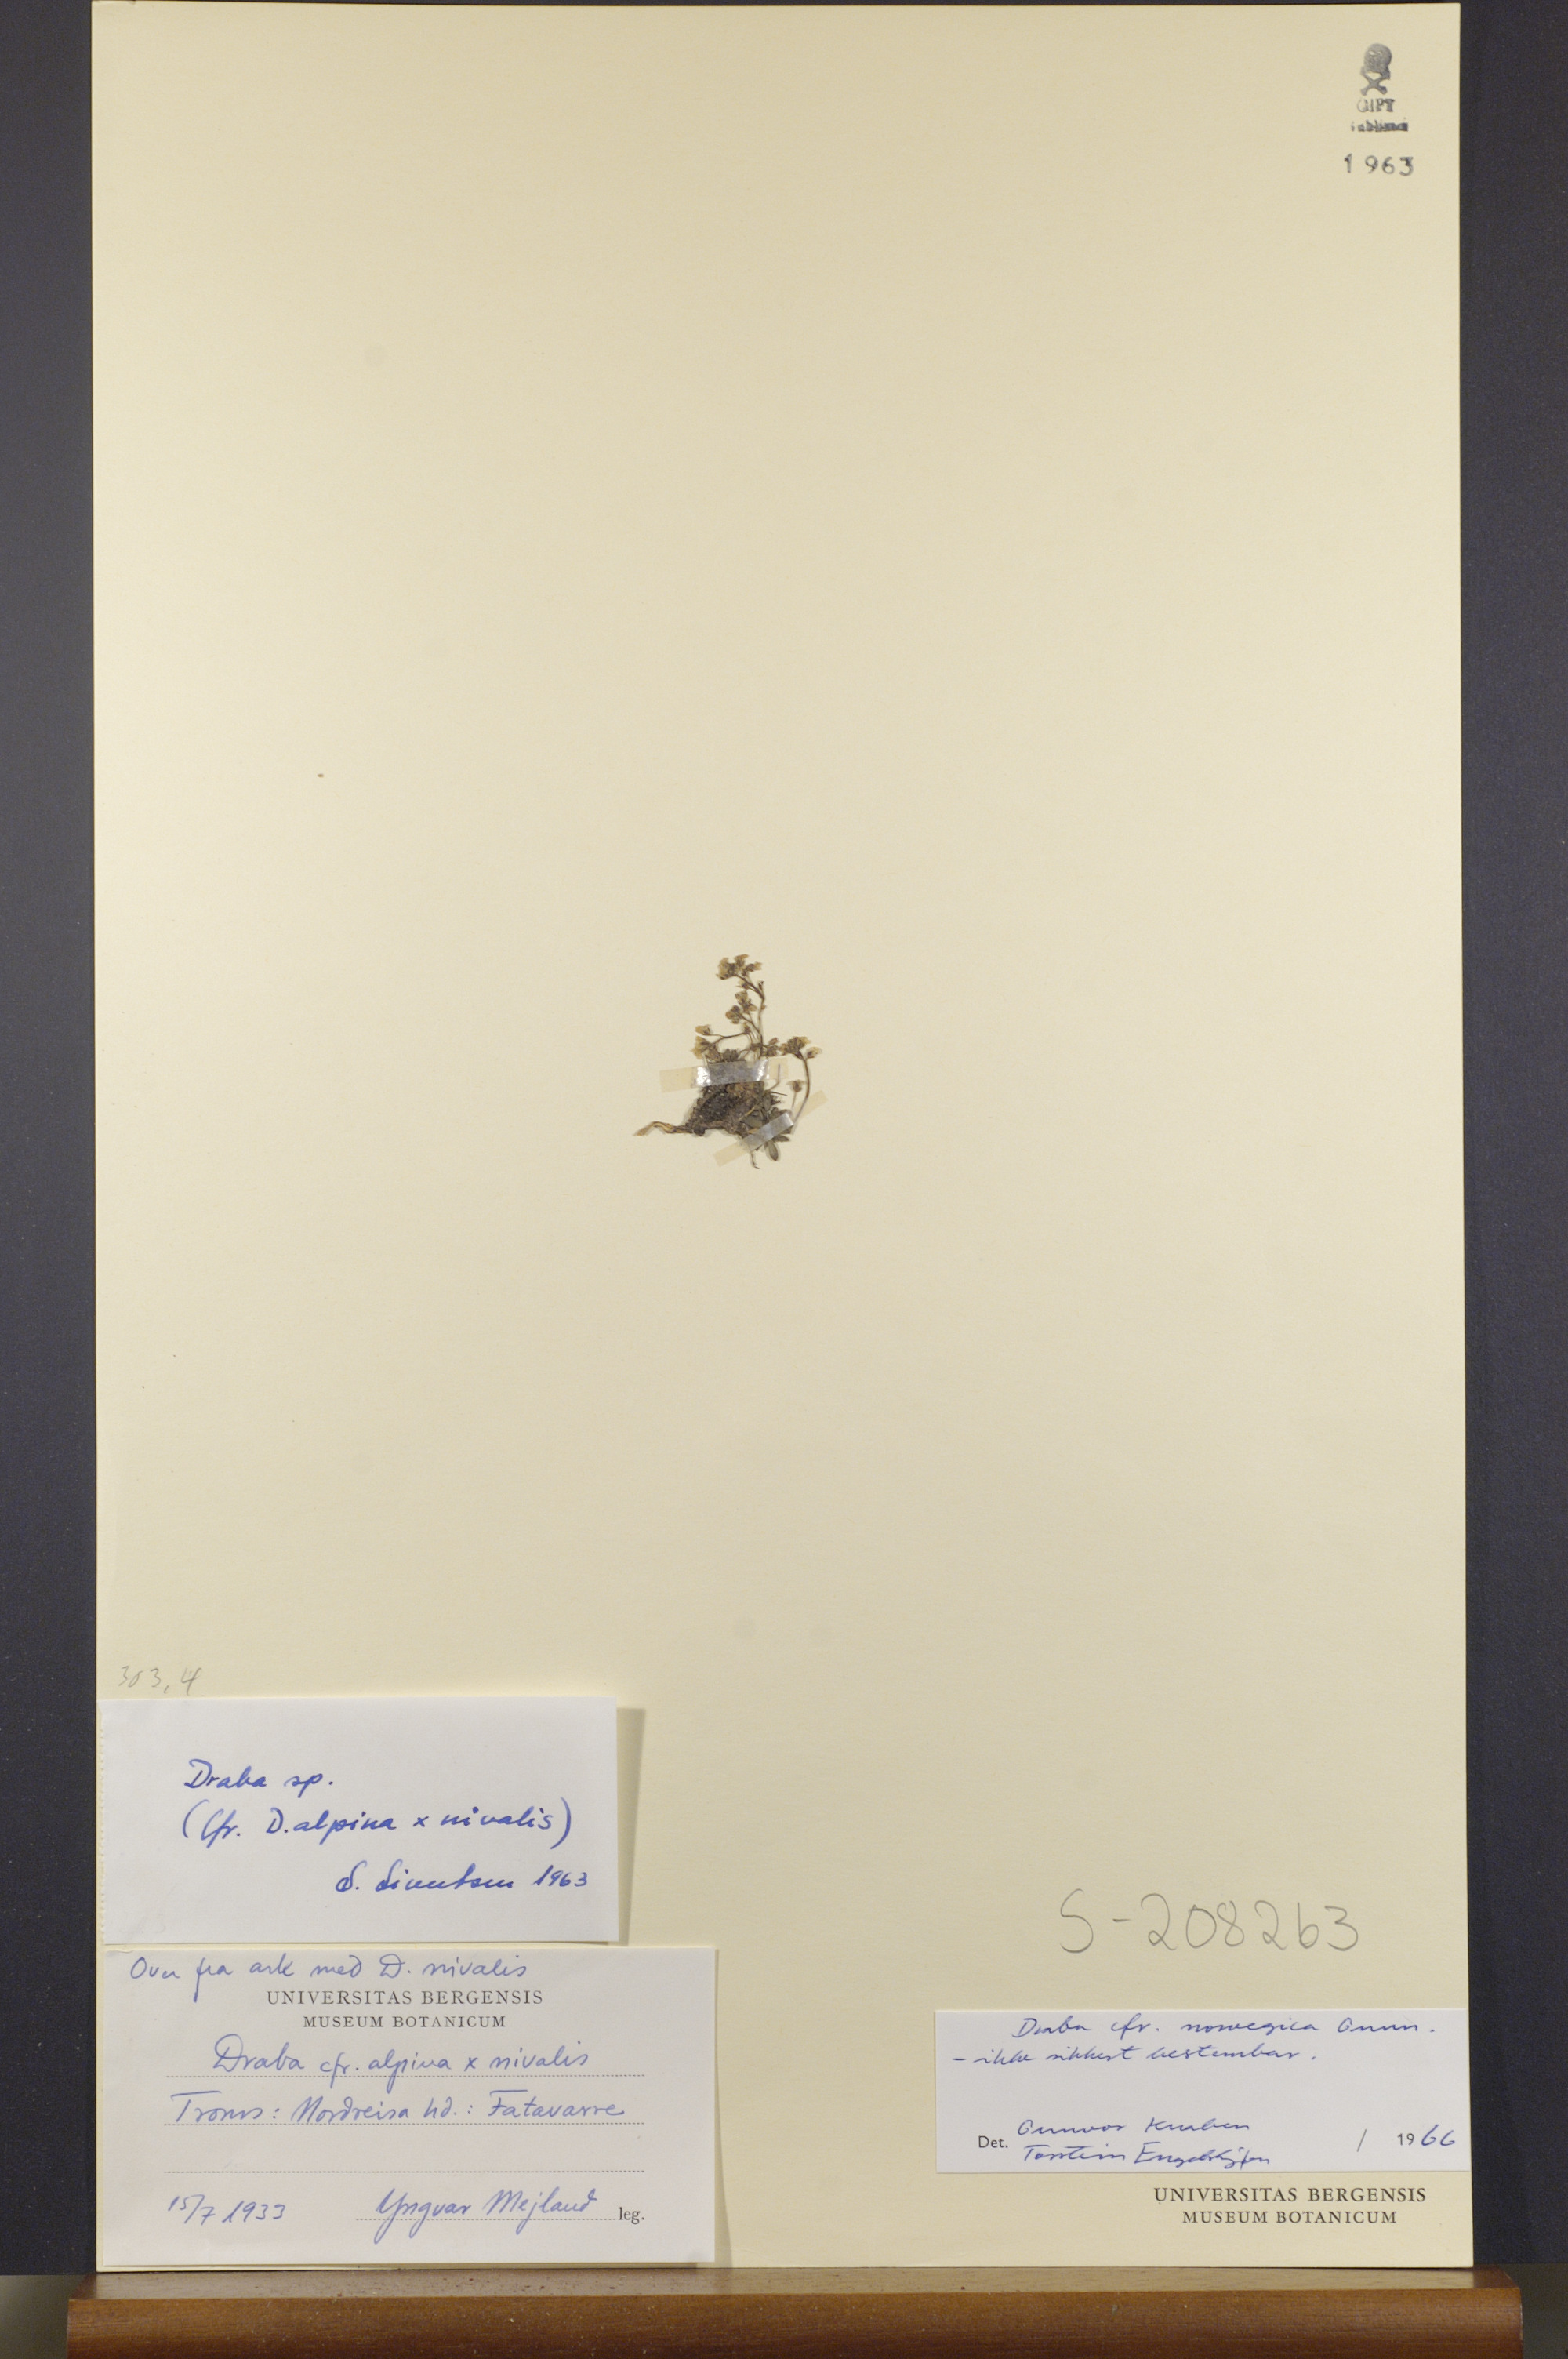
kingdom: Plantae
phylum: Tracheophyta
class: Magnoliopsida
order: Brassicales
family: Brassicaceae
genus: Draba
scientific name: Draba norvegica
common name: Rock whitlowgrass
